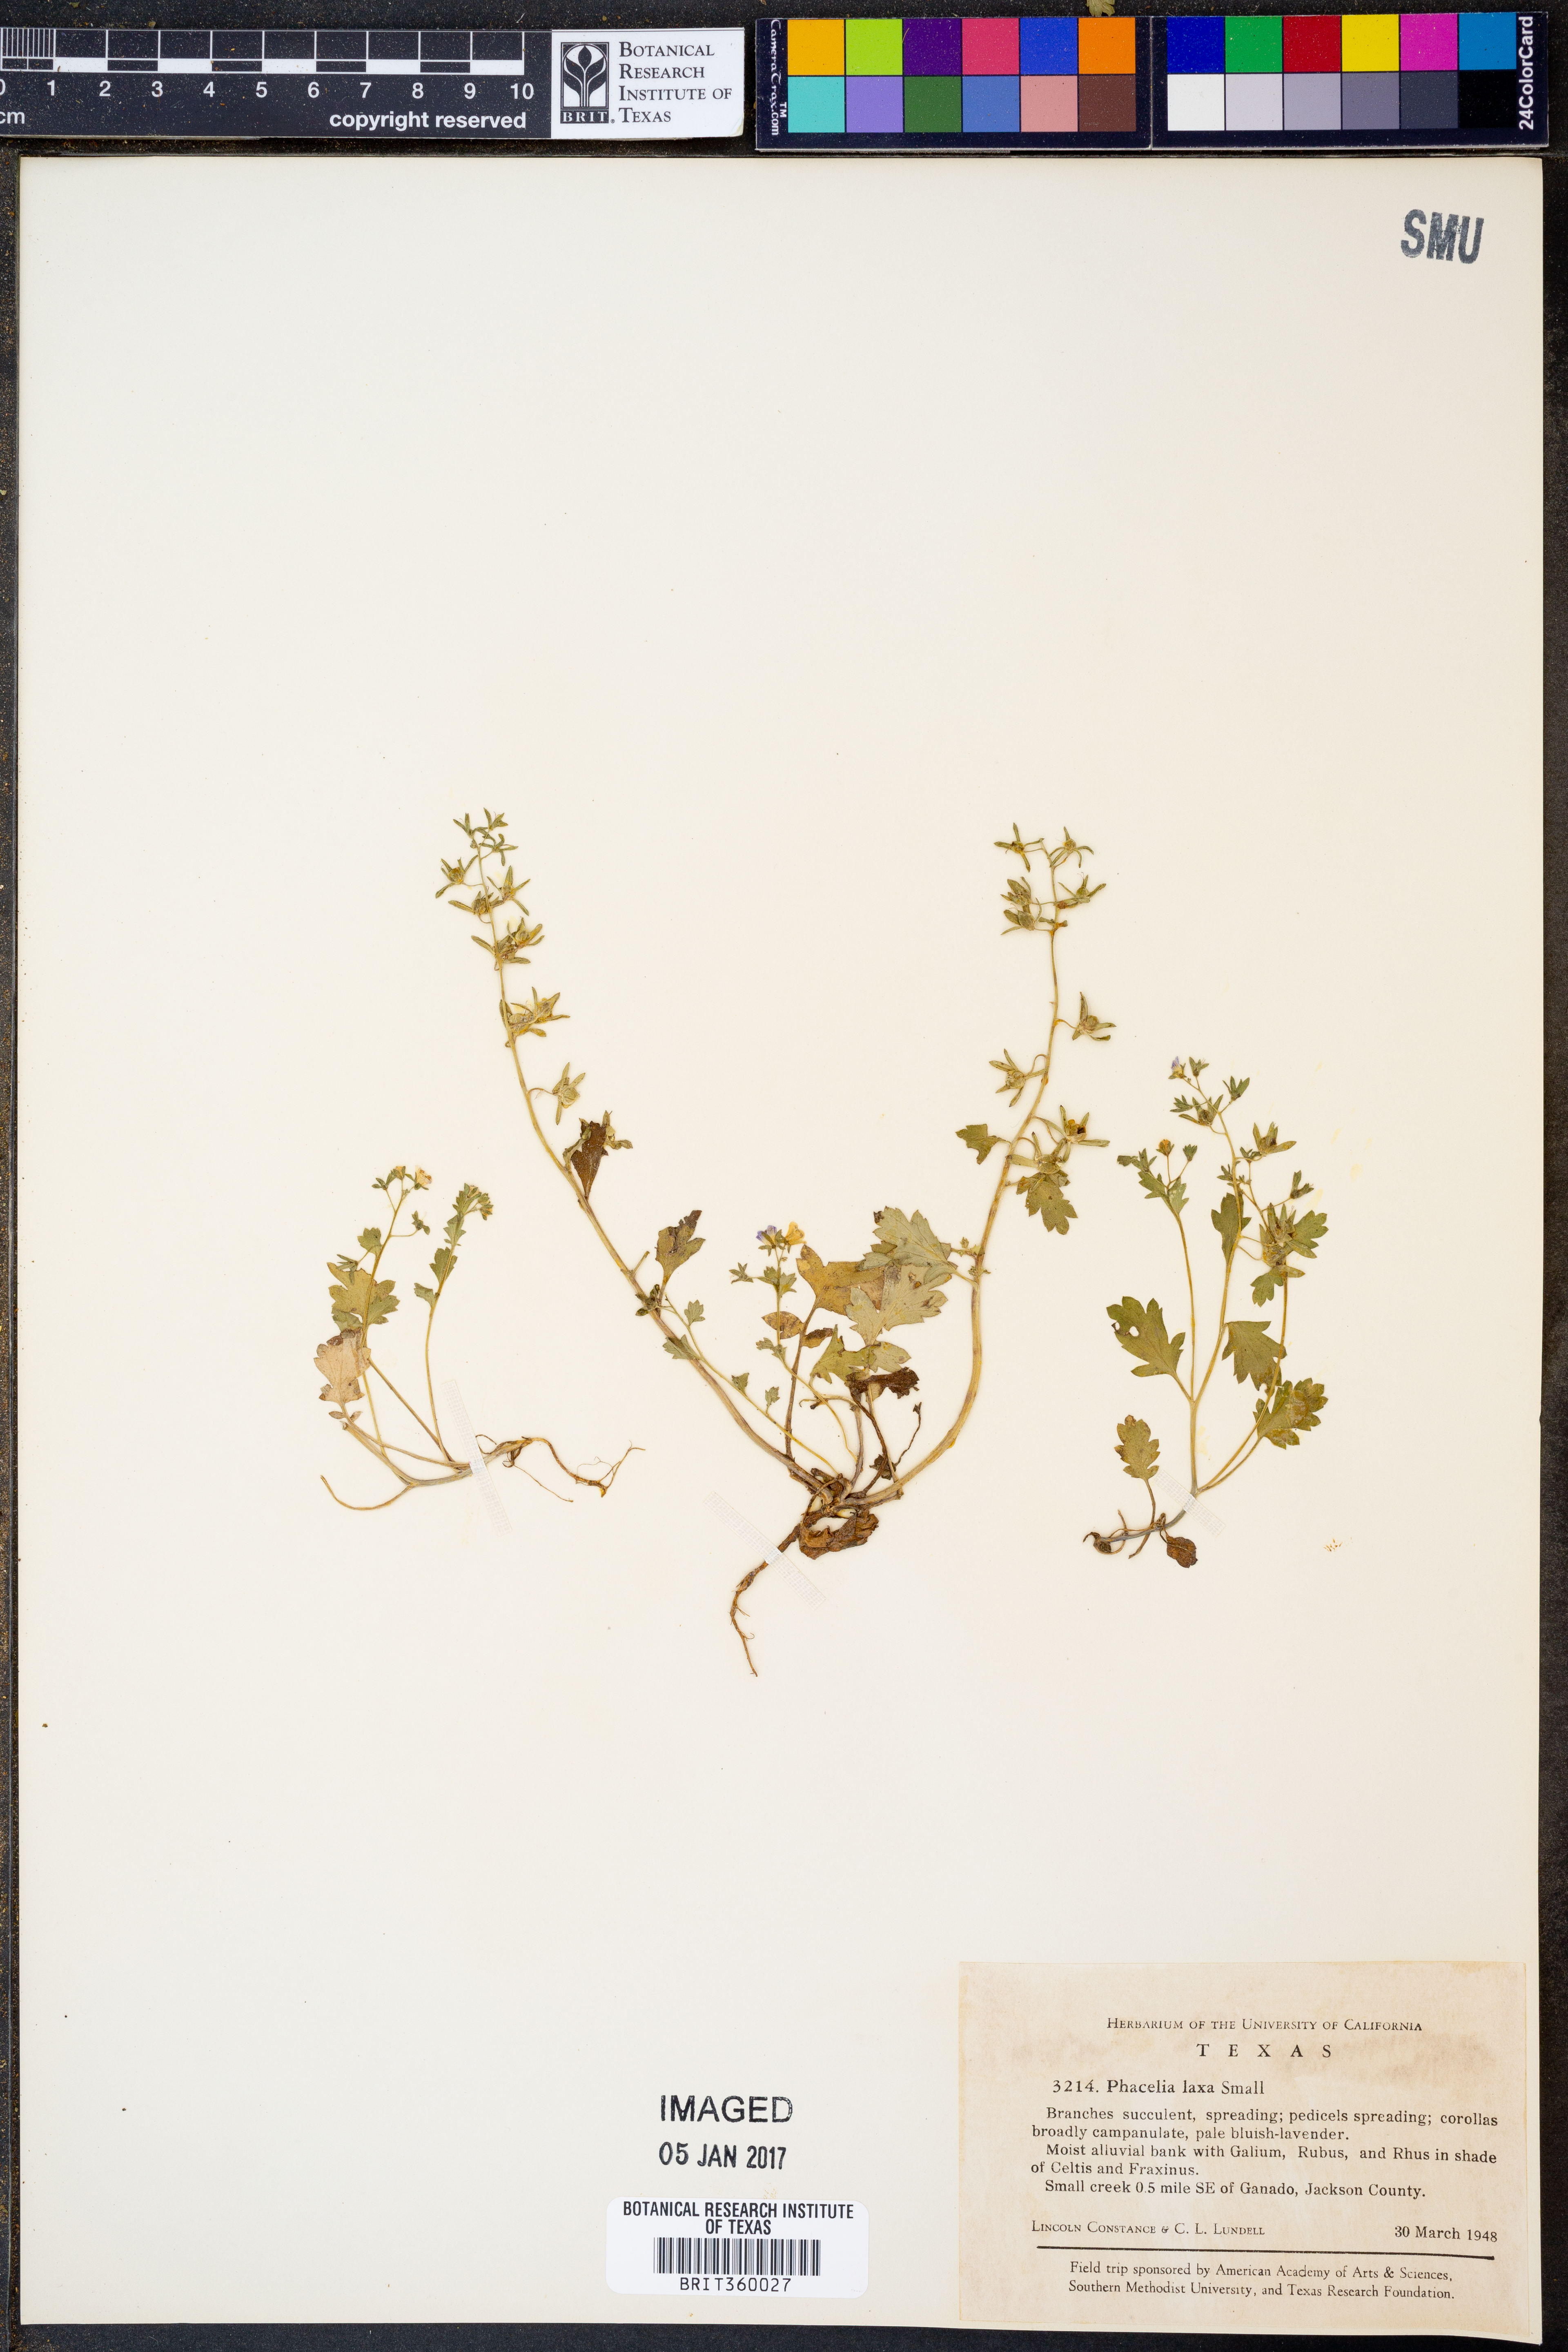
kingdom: Plantae
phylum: Tracheophyta
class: Magnoliopsida
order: Boraginales
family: Hydrophyllaceae
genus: Phacelia
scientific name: Phacelia laxa
